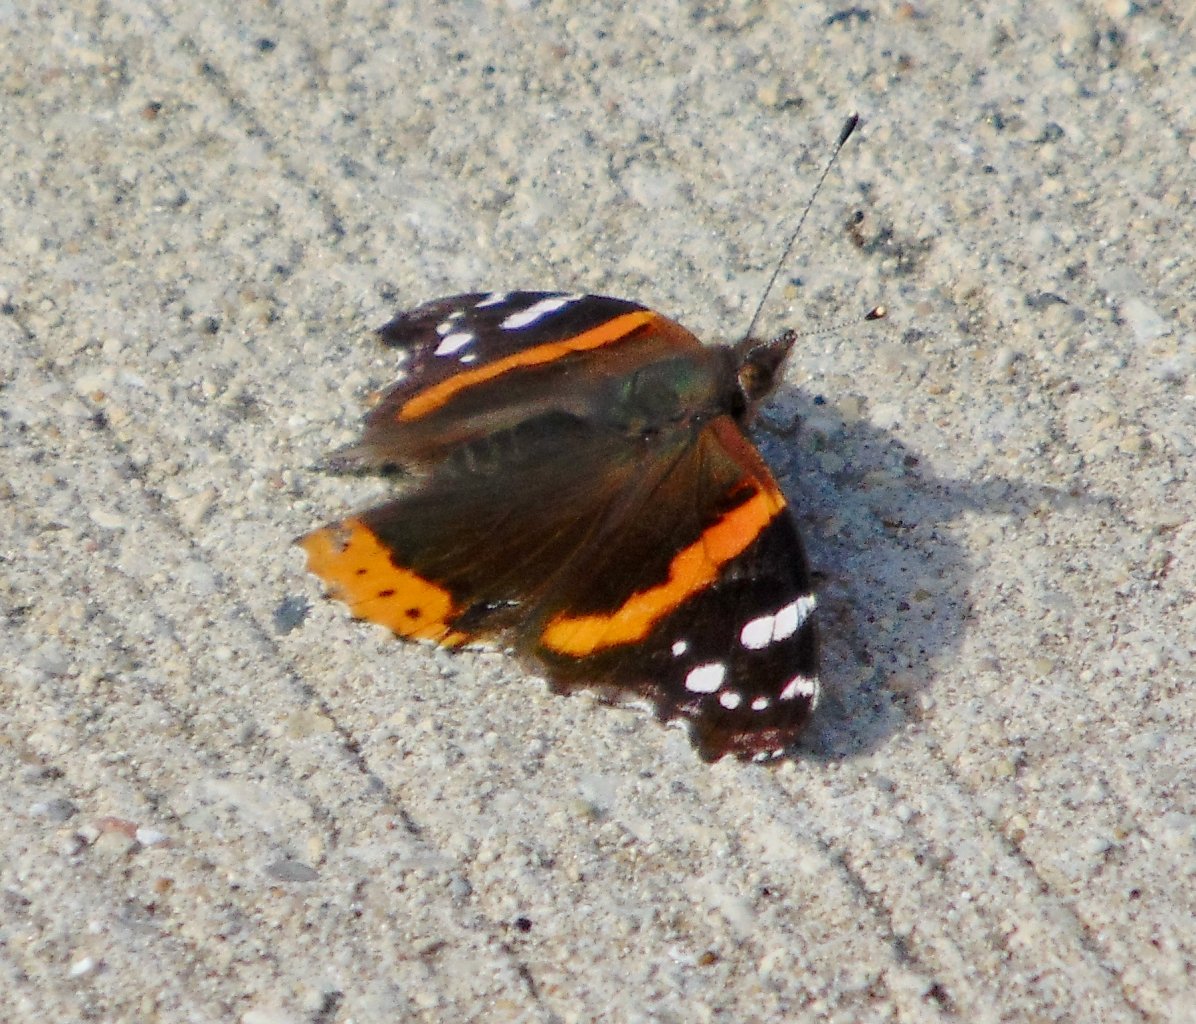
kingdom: Animalia
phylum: Arthropoda
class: Insecta
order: Lepidoptera
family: Nymphalidae
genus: Vanessa
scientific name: Vanessa atalanta
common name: Red Admiral
